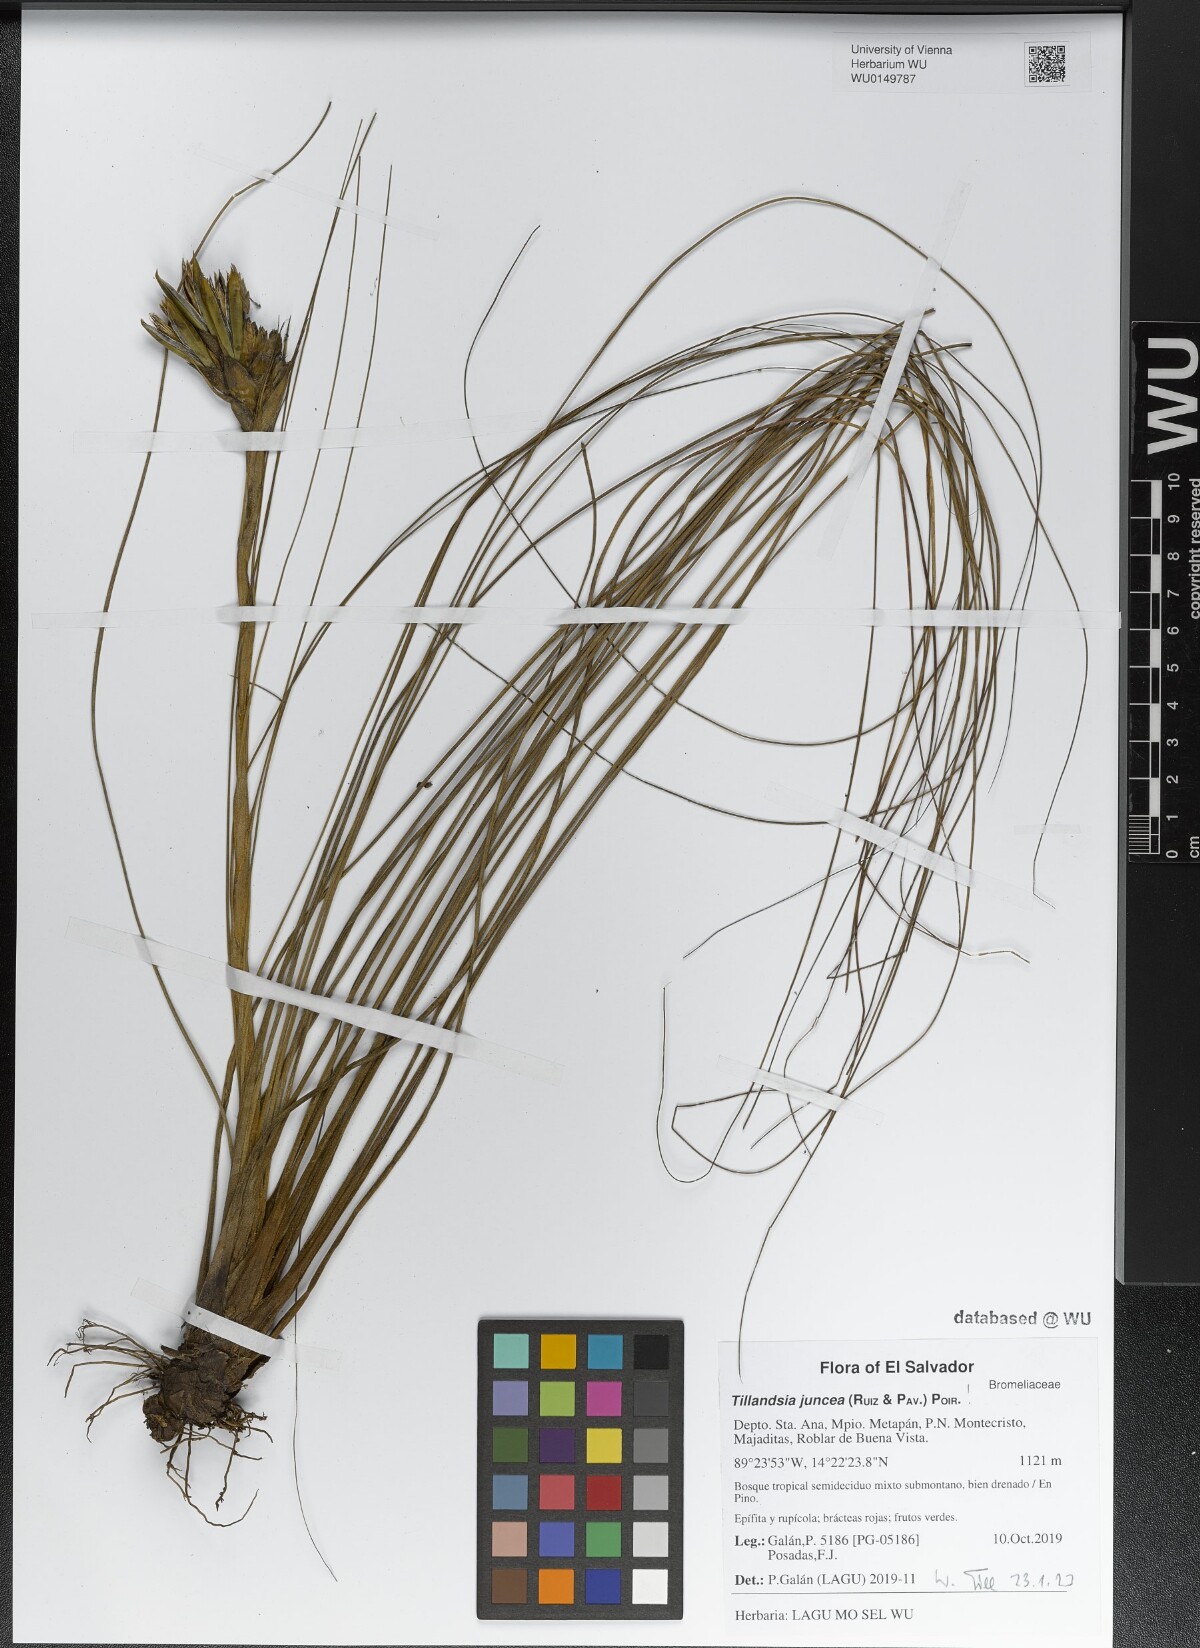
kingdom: Plantae
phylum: Tracheophyta
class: Liliopsida
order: Poales
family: Bromeliaceae
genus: Tillandsia
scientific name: Tillandsia juncea
